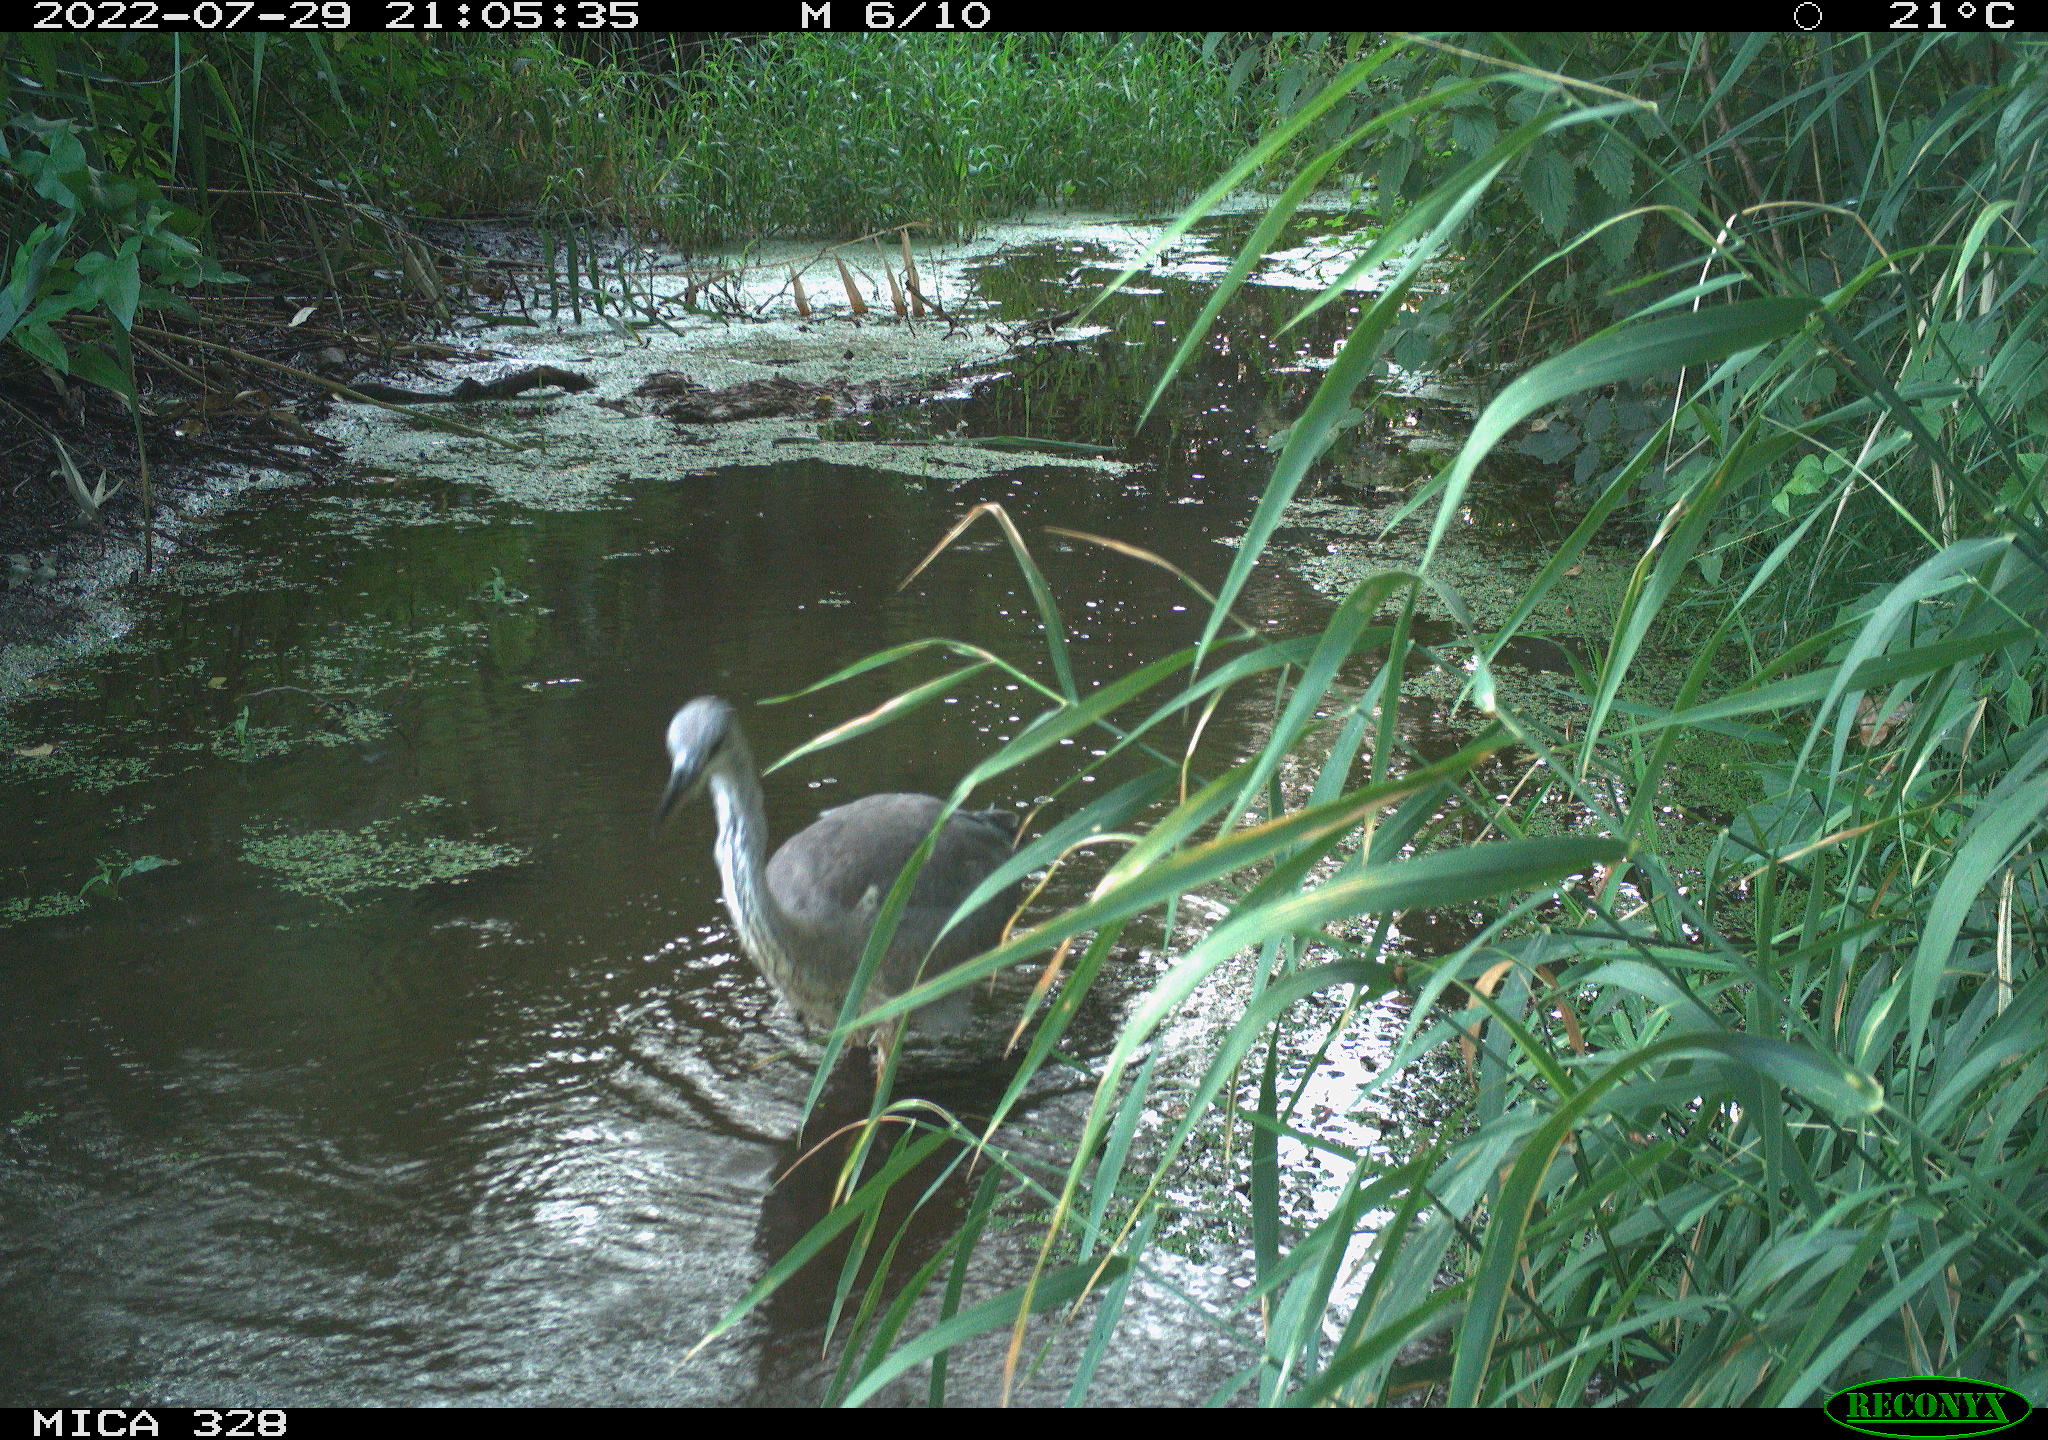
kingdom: Animalia
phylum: Chordata
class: Aves
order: Pelecaniformes
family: Ardeidae
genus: Ardea
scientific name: Ardea cinerea
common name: Grey heron
